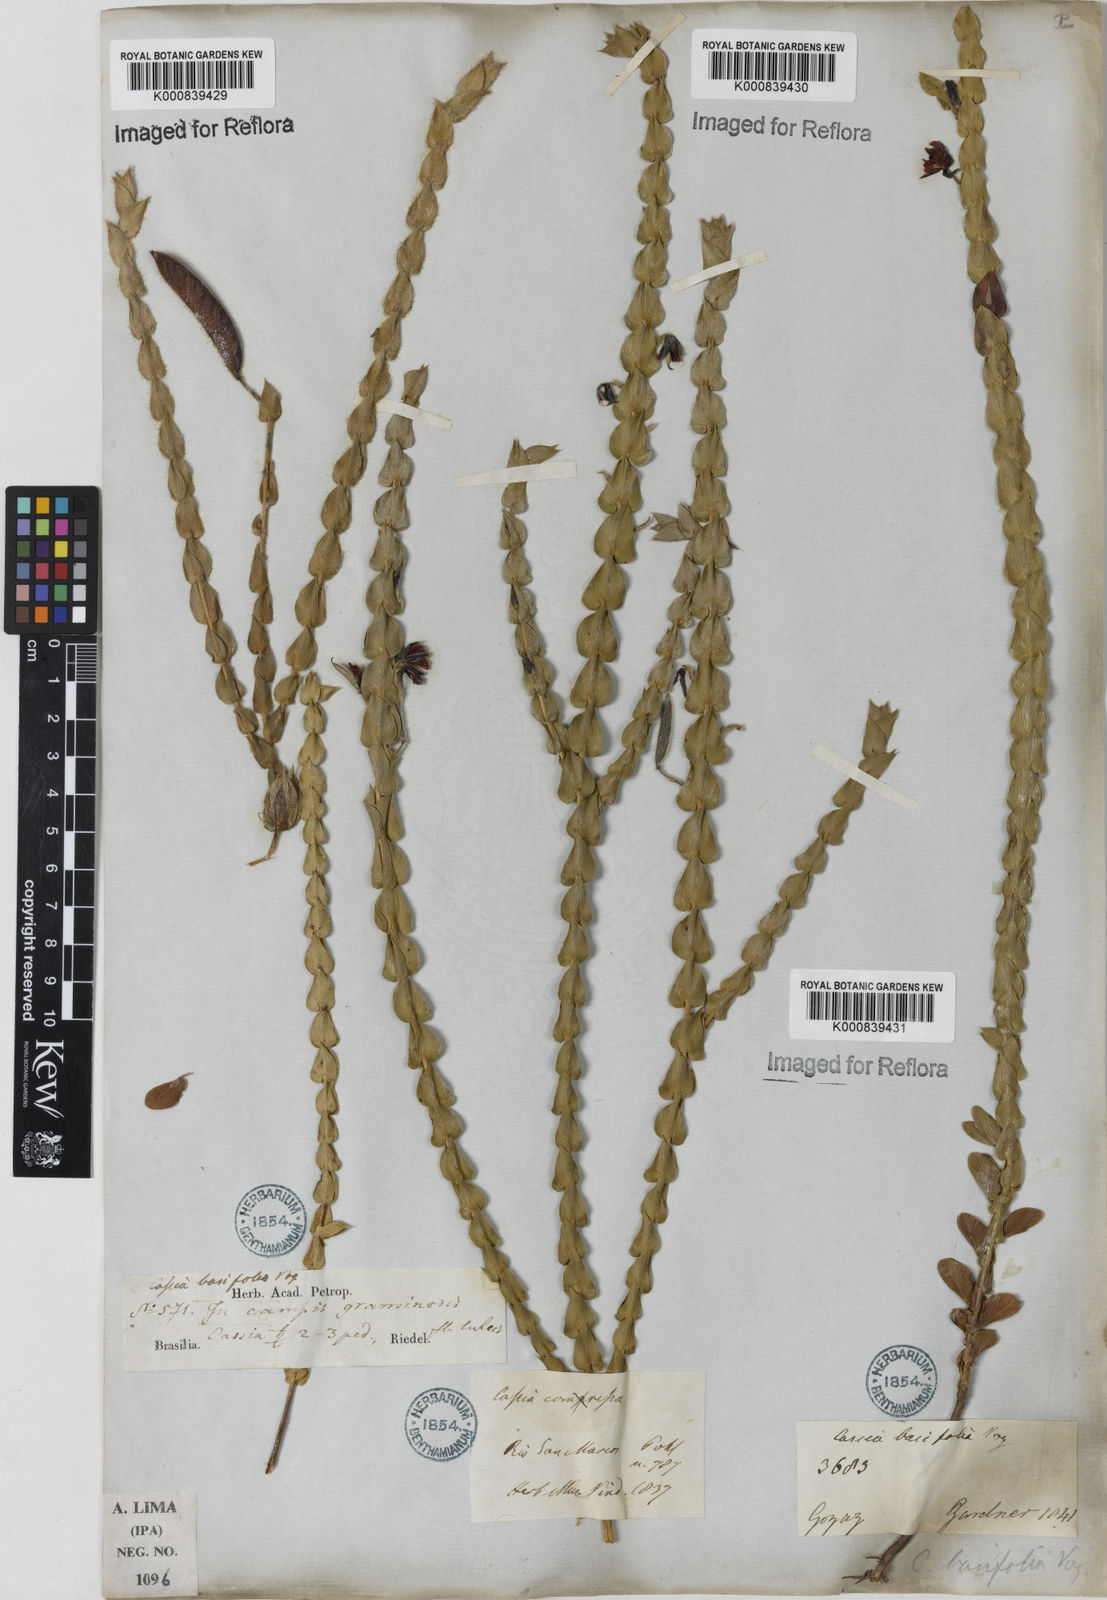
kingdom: Plantae
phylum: Tracheophyta
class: Magnoliopsida
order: Fabales
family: Fabaceae
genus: Chamaecrista
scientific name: Chamaecrista basifolia
